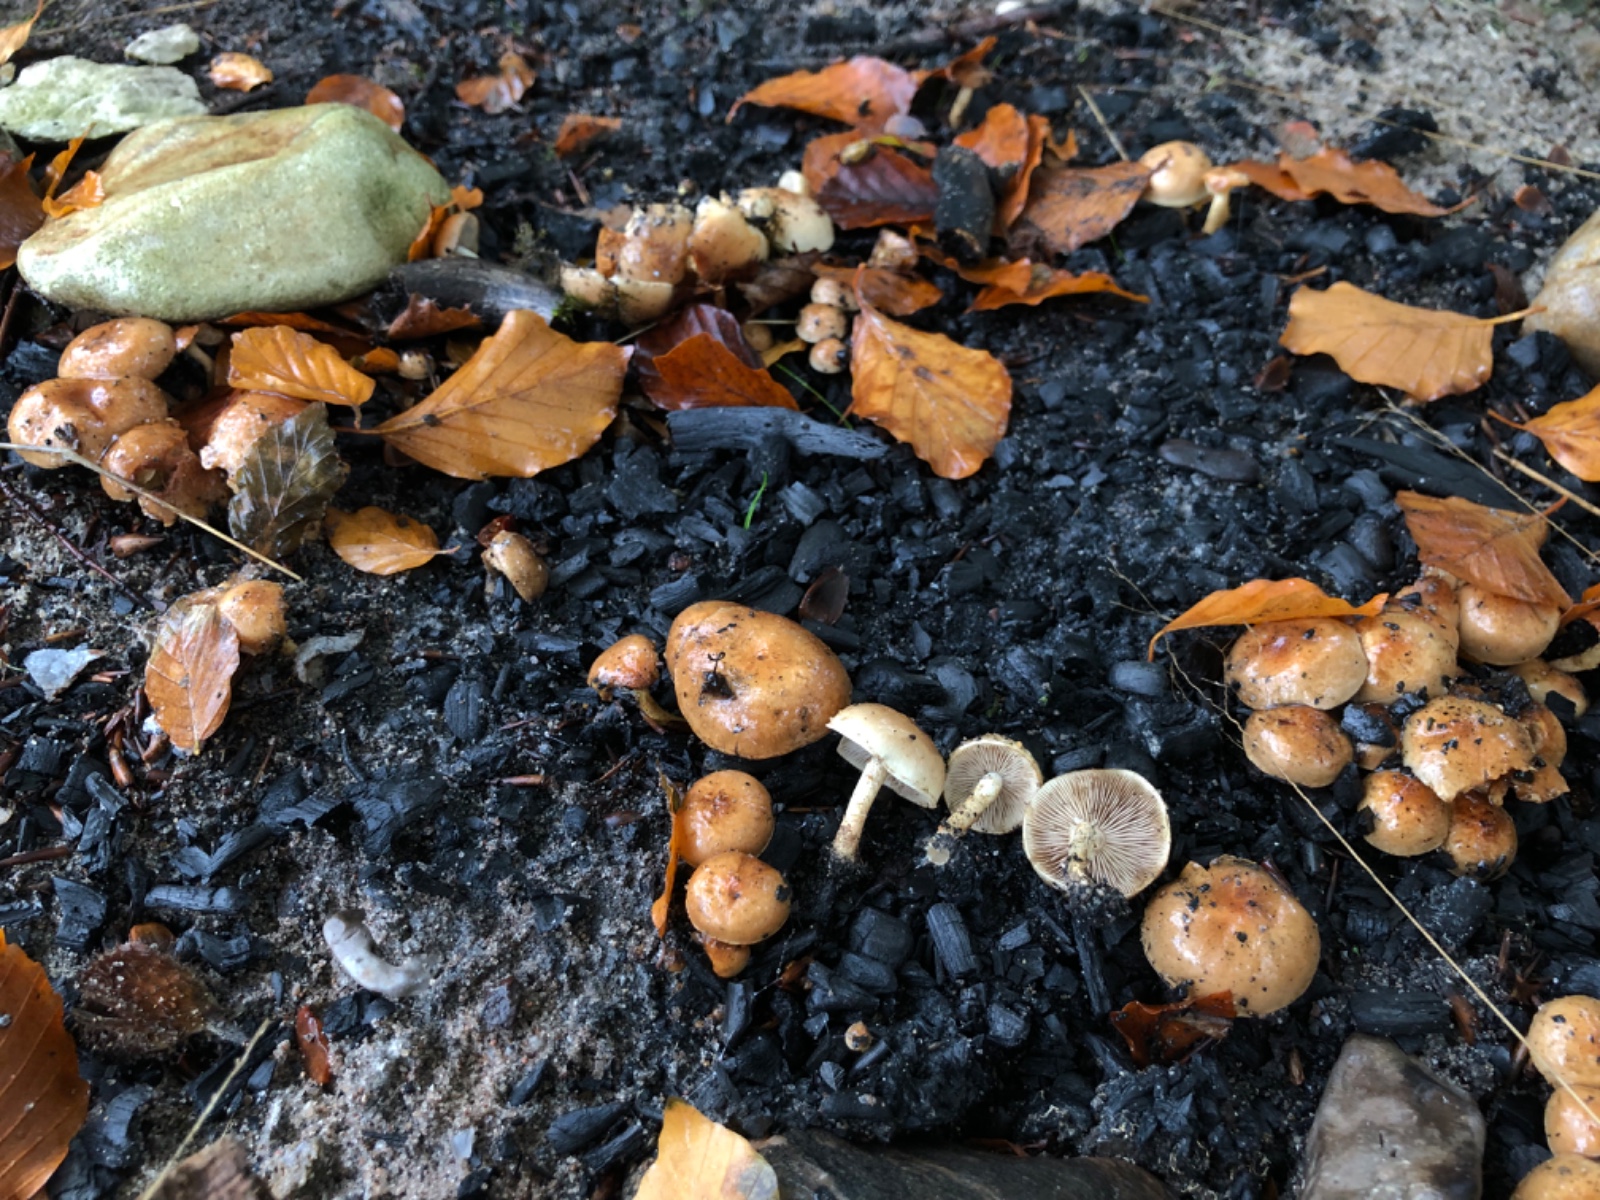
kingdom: Fungi
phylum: Basidiomycota
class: Agaricomycetes
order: Agaricales
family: Strophariaceae
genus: Pholiota
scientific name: Pholiota carbonaria
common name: kul-skælhat
